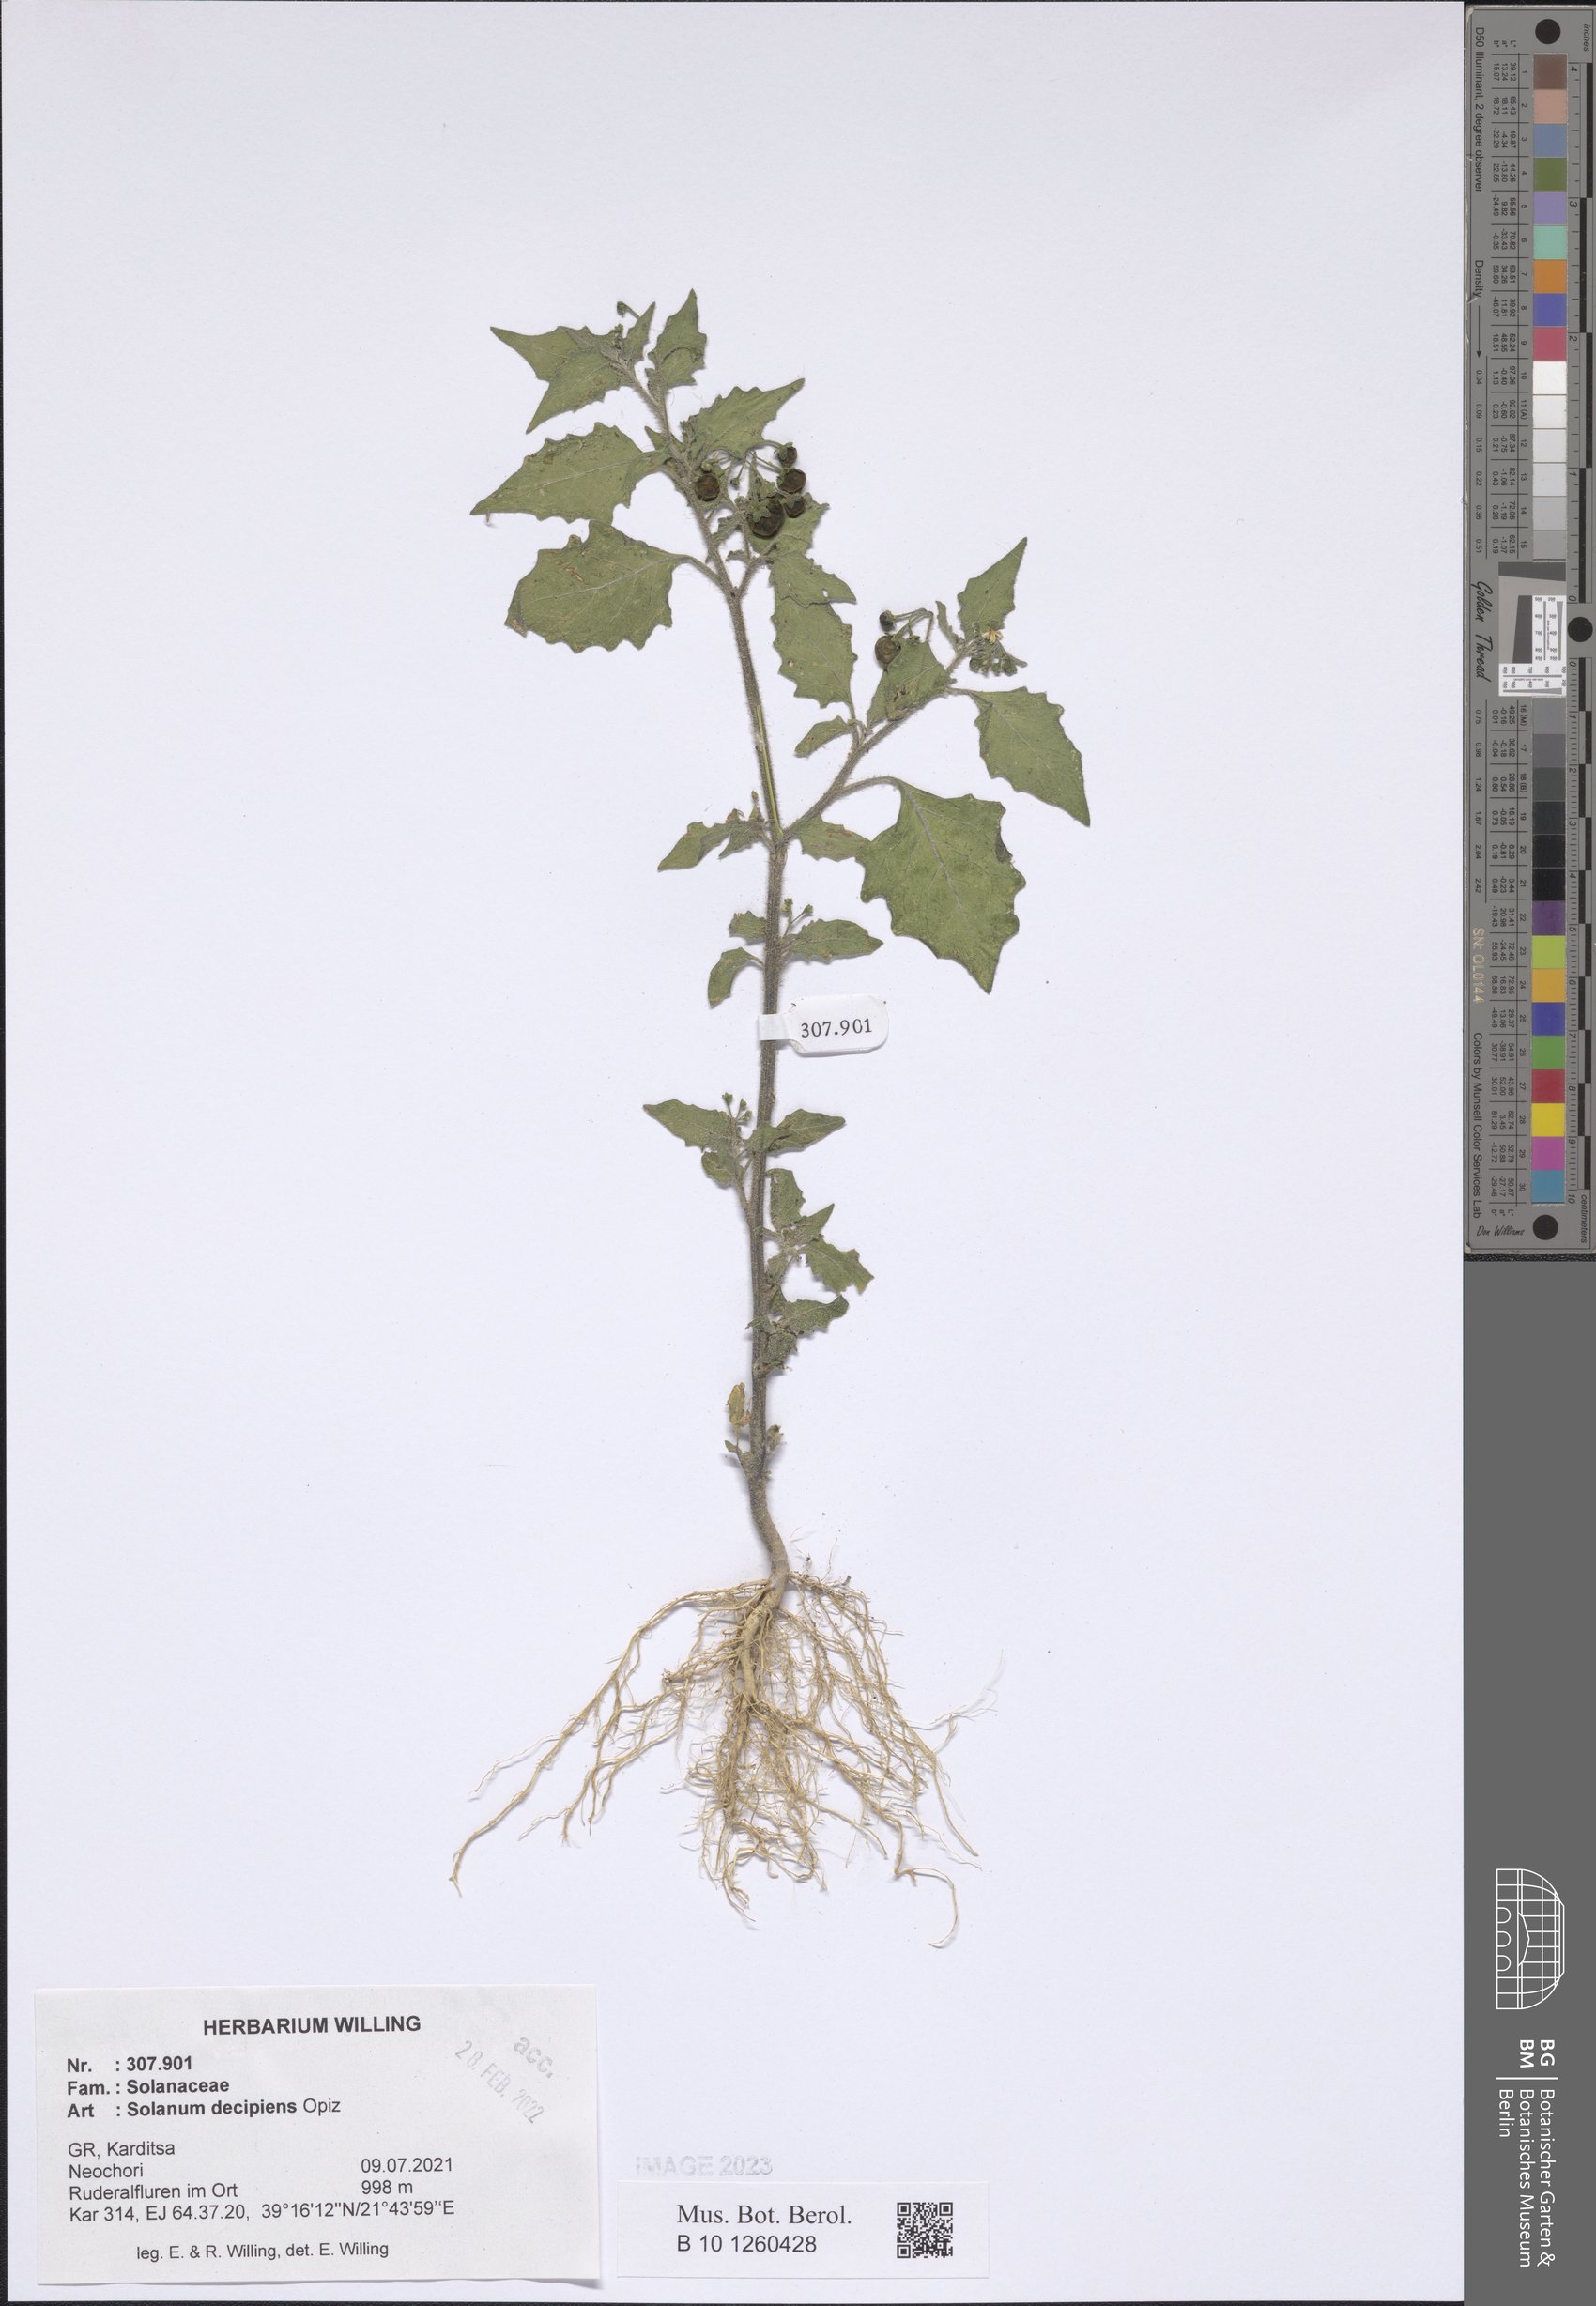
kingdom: Plantae
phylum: Tracheophyta
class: Magnoliopsida
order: Solanales
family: Solanaceae
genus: Solanum
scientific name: Solanum decipiens
